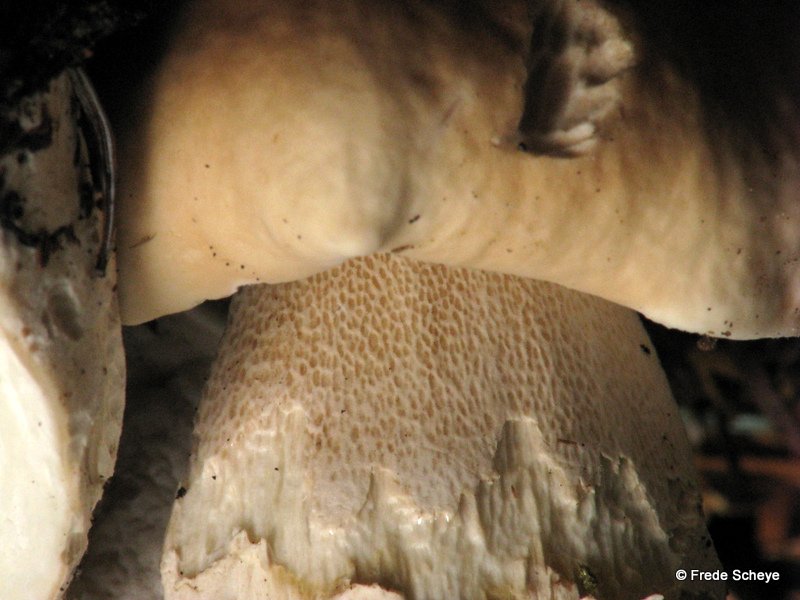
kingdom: Fungi
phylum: Basidiomycota
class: Agaricomycetes
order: Boletales
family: Boletaceae
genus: Boletus
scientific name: Boletus reticulatus
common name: sommer-rørhat
